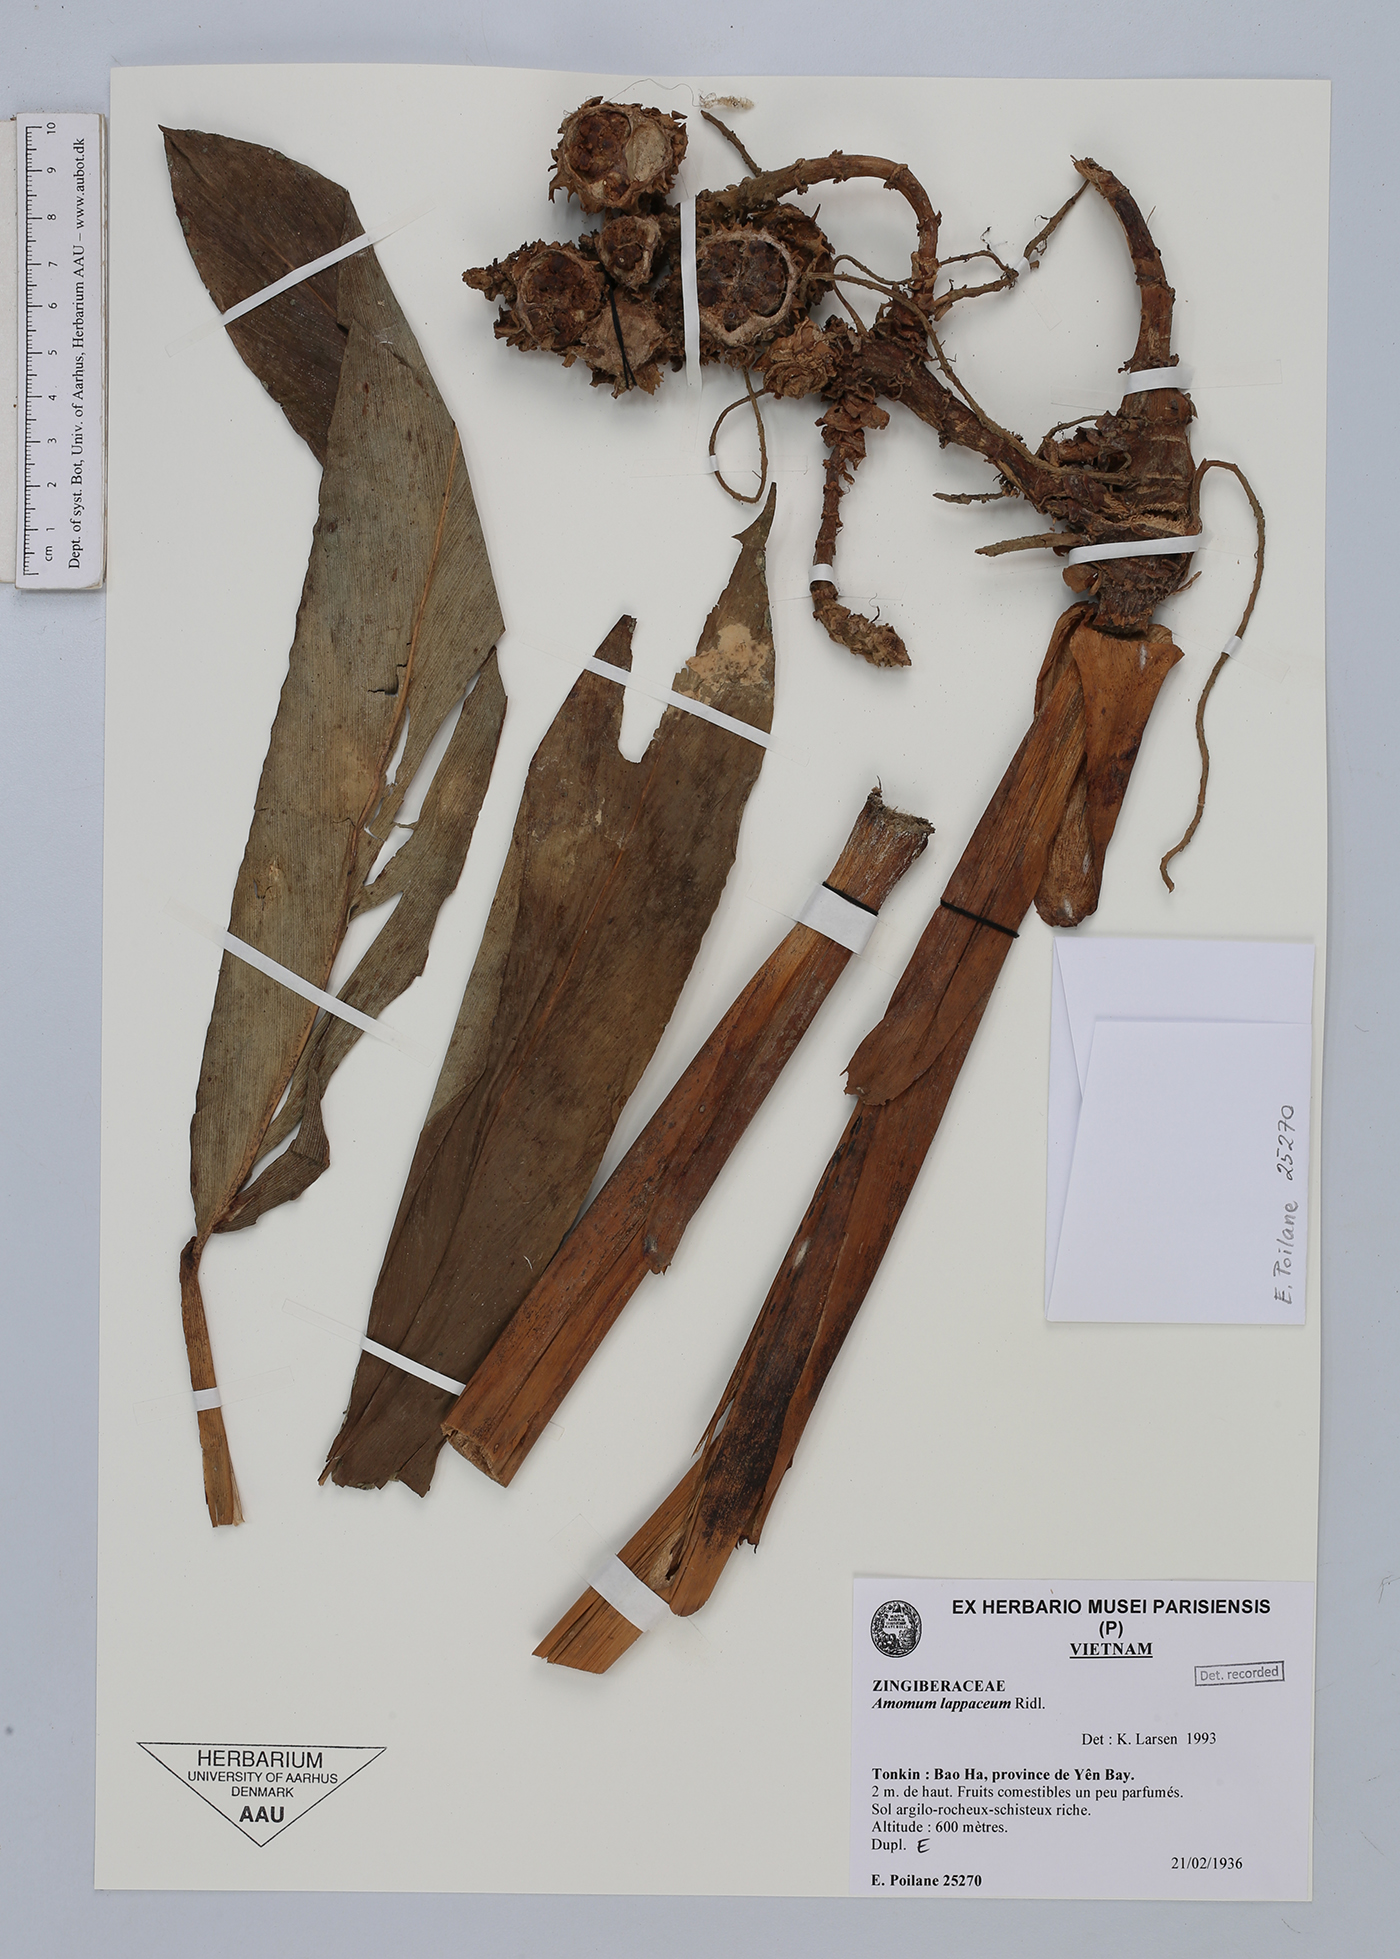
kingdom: Plantae
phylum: Tracheophyta
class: Liliopsida
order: Zingiberales
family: Zingiberaceae
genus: Meistera
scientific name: Meistera lappacea
